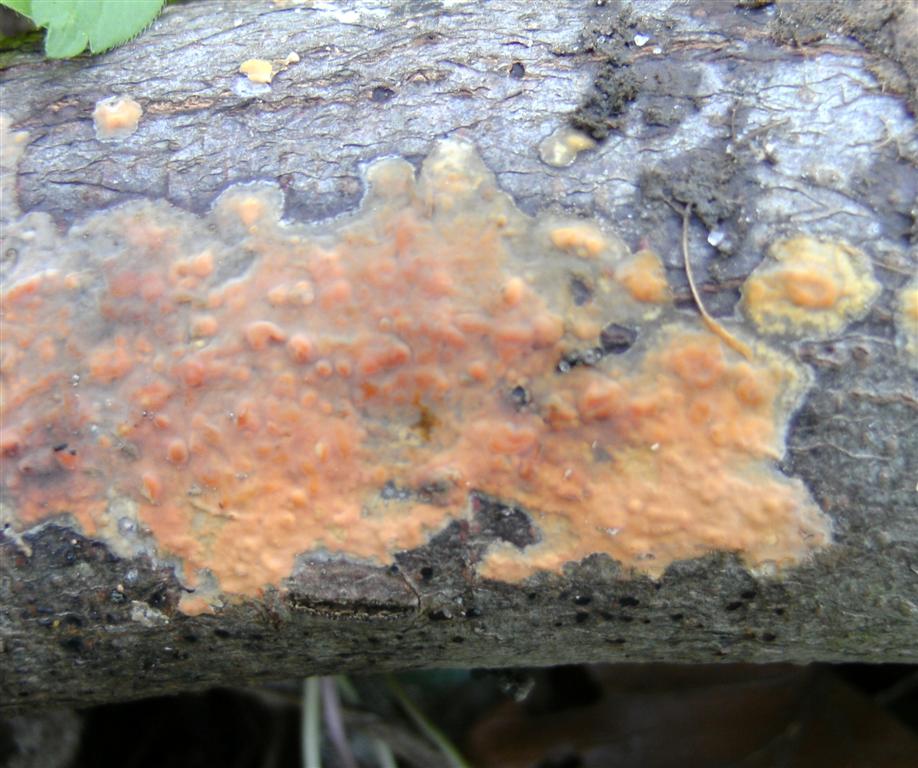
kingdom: Fungi
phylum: Basidiomycota
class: Agaricomycetes
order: Russulales
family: Peniophoraceae
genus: Peniophora
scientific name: Peniophora incarnata
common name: laksefarvet voksskind
